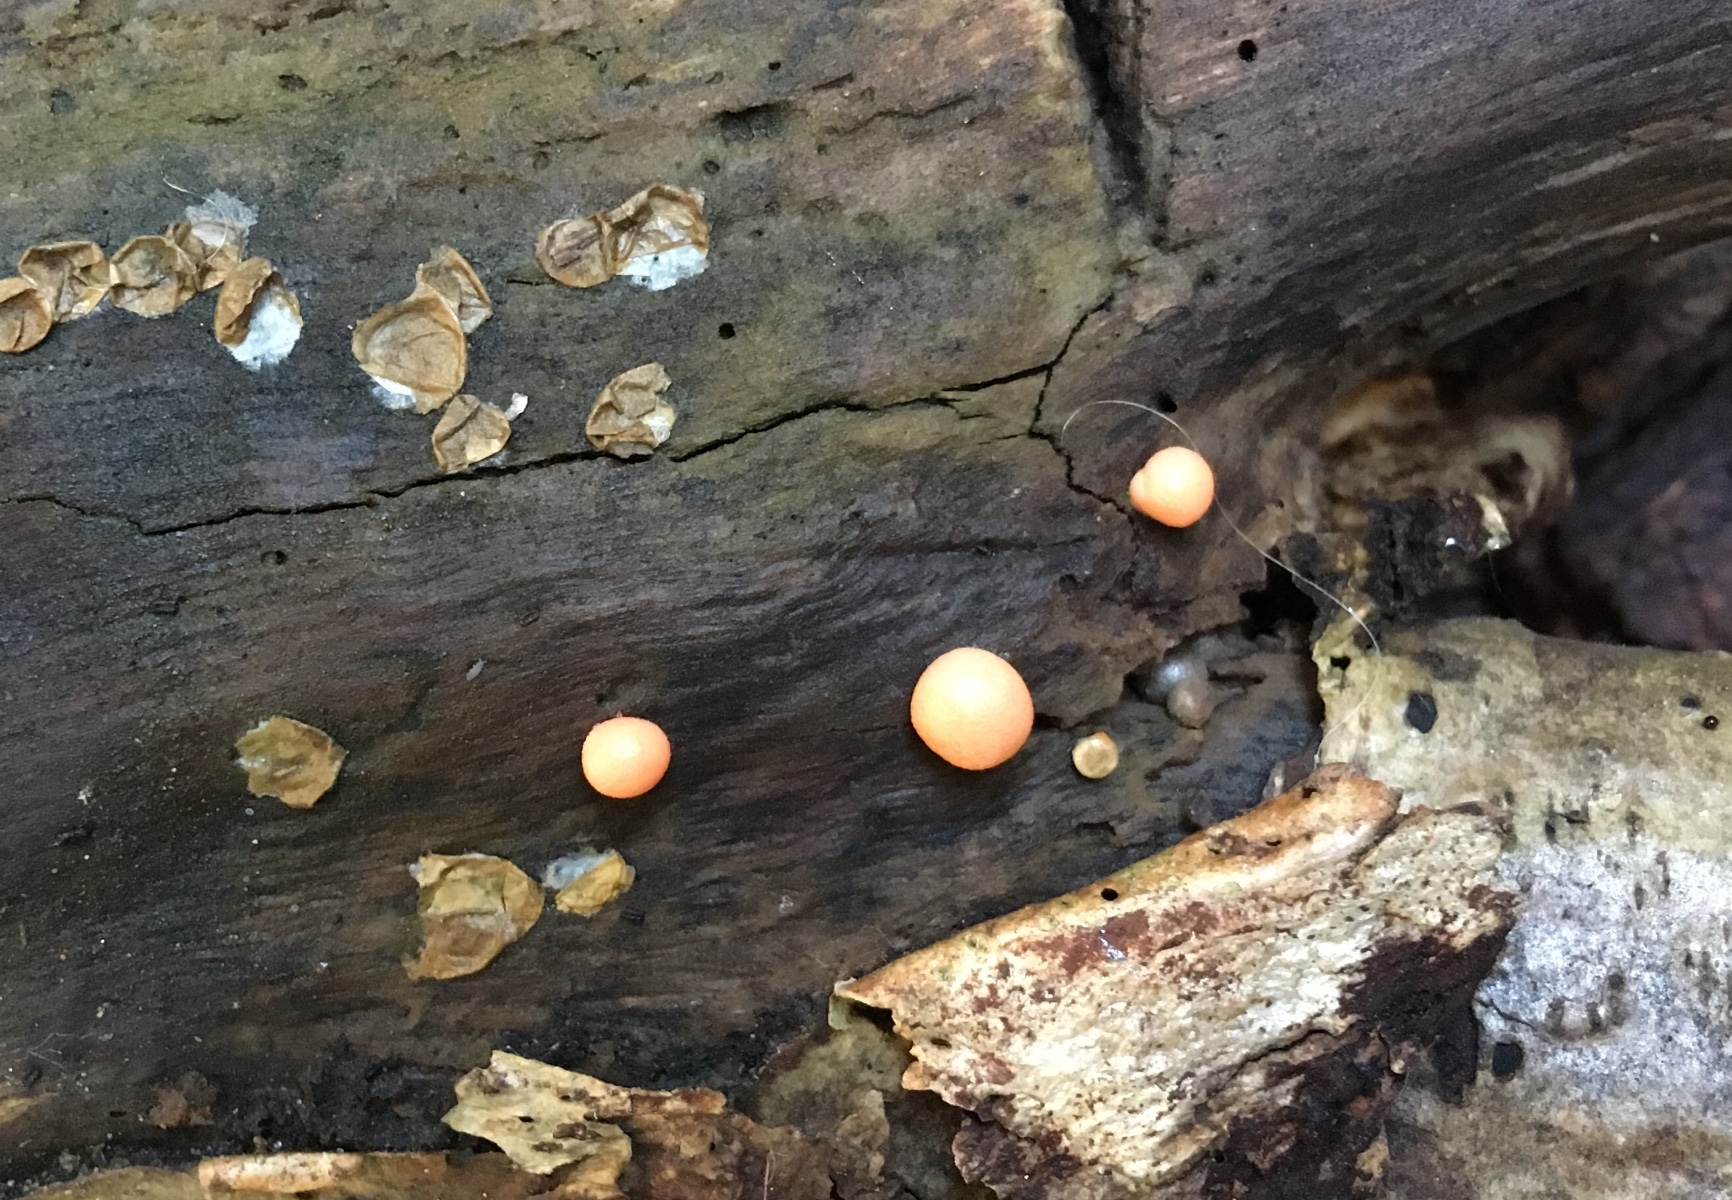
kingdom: Protozoa
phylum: Mycetozoa
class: Myxomycetes
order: Cribrariales
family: Tubiferaceae
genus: Lycogala
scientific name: Lycogala epidendrum
